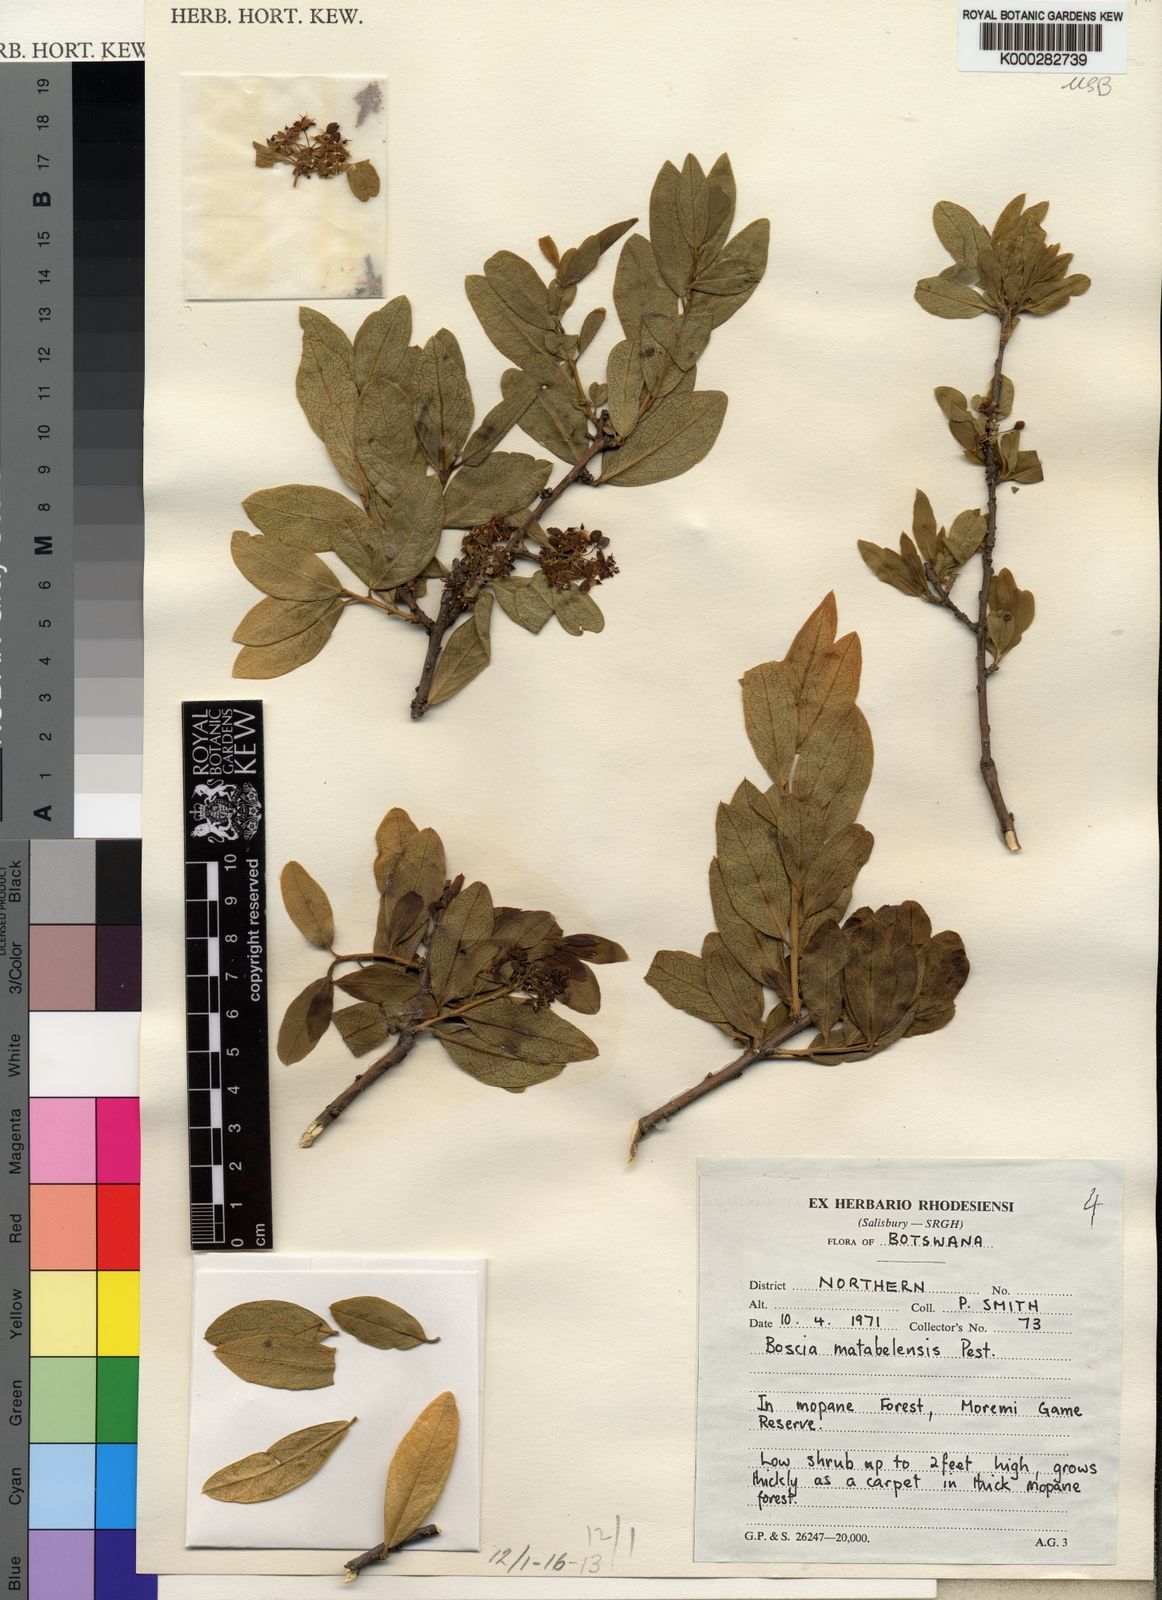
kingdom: Plantae
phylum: Tracheophyta
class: Magnoliopsida
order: Brassicales
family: Capparaceae
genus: Boscia
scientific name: Boscia matabelensis
